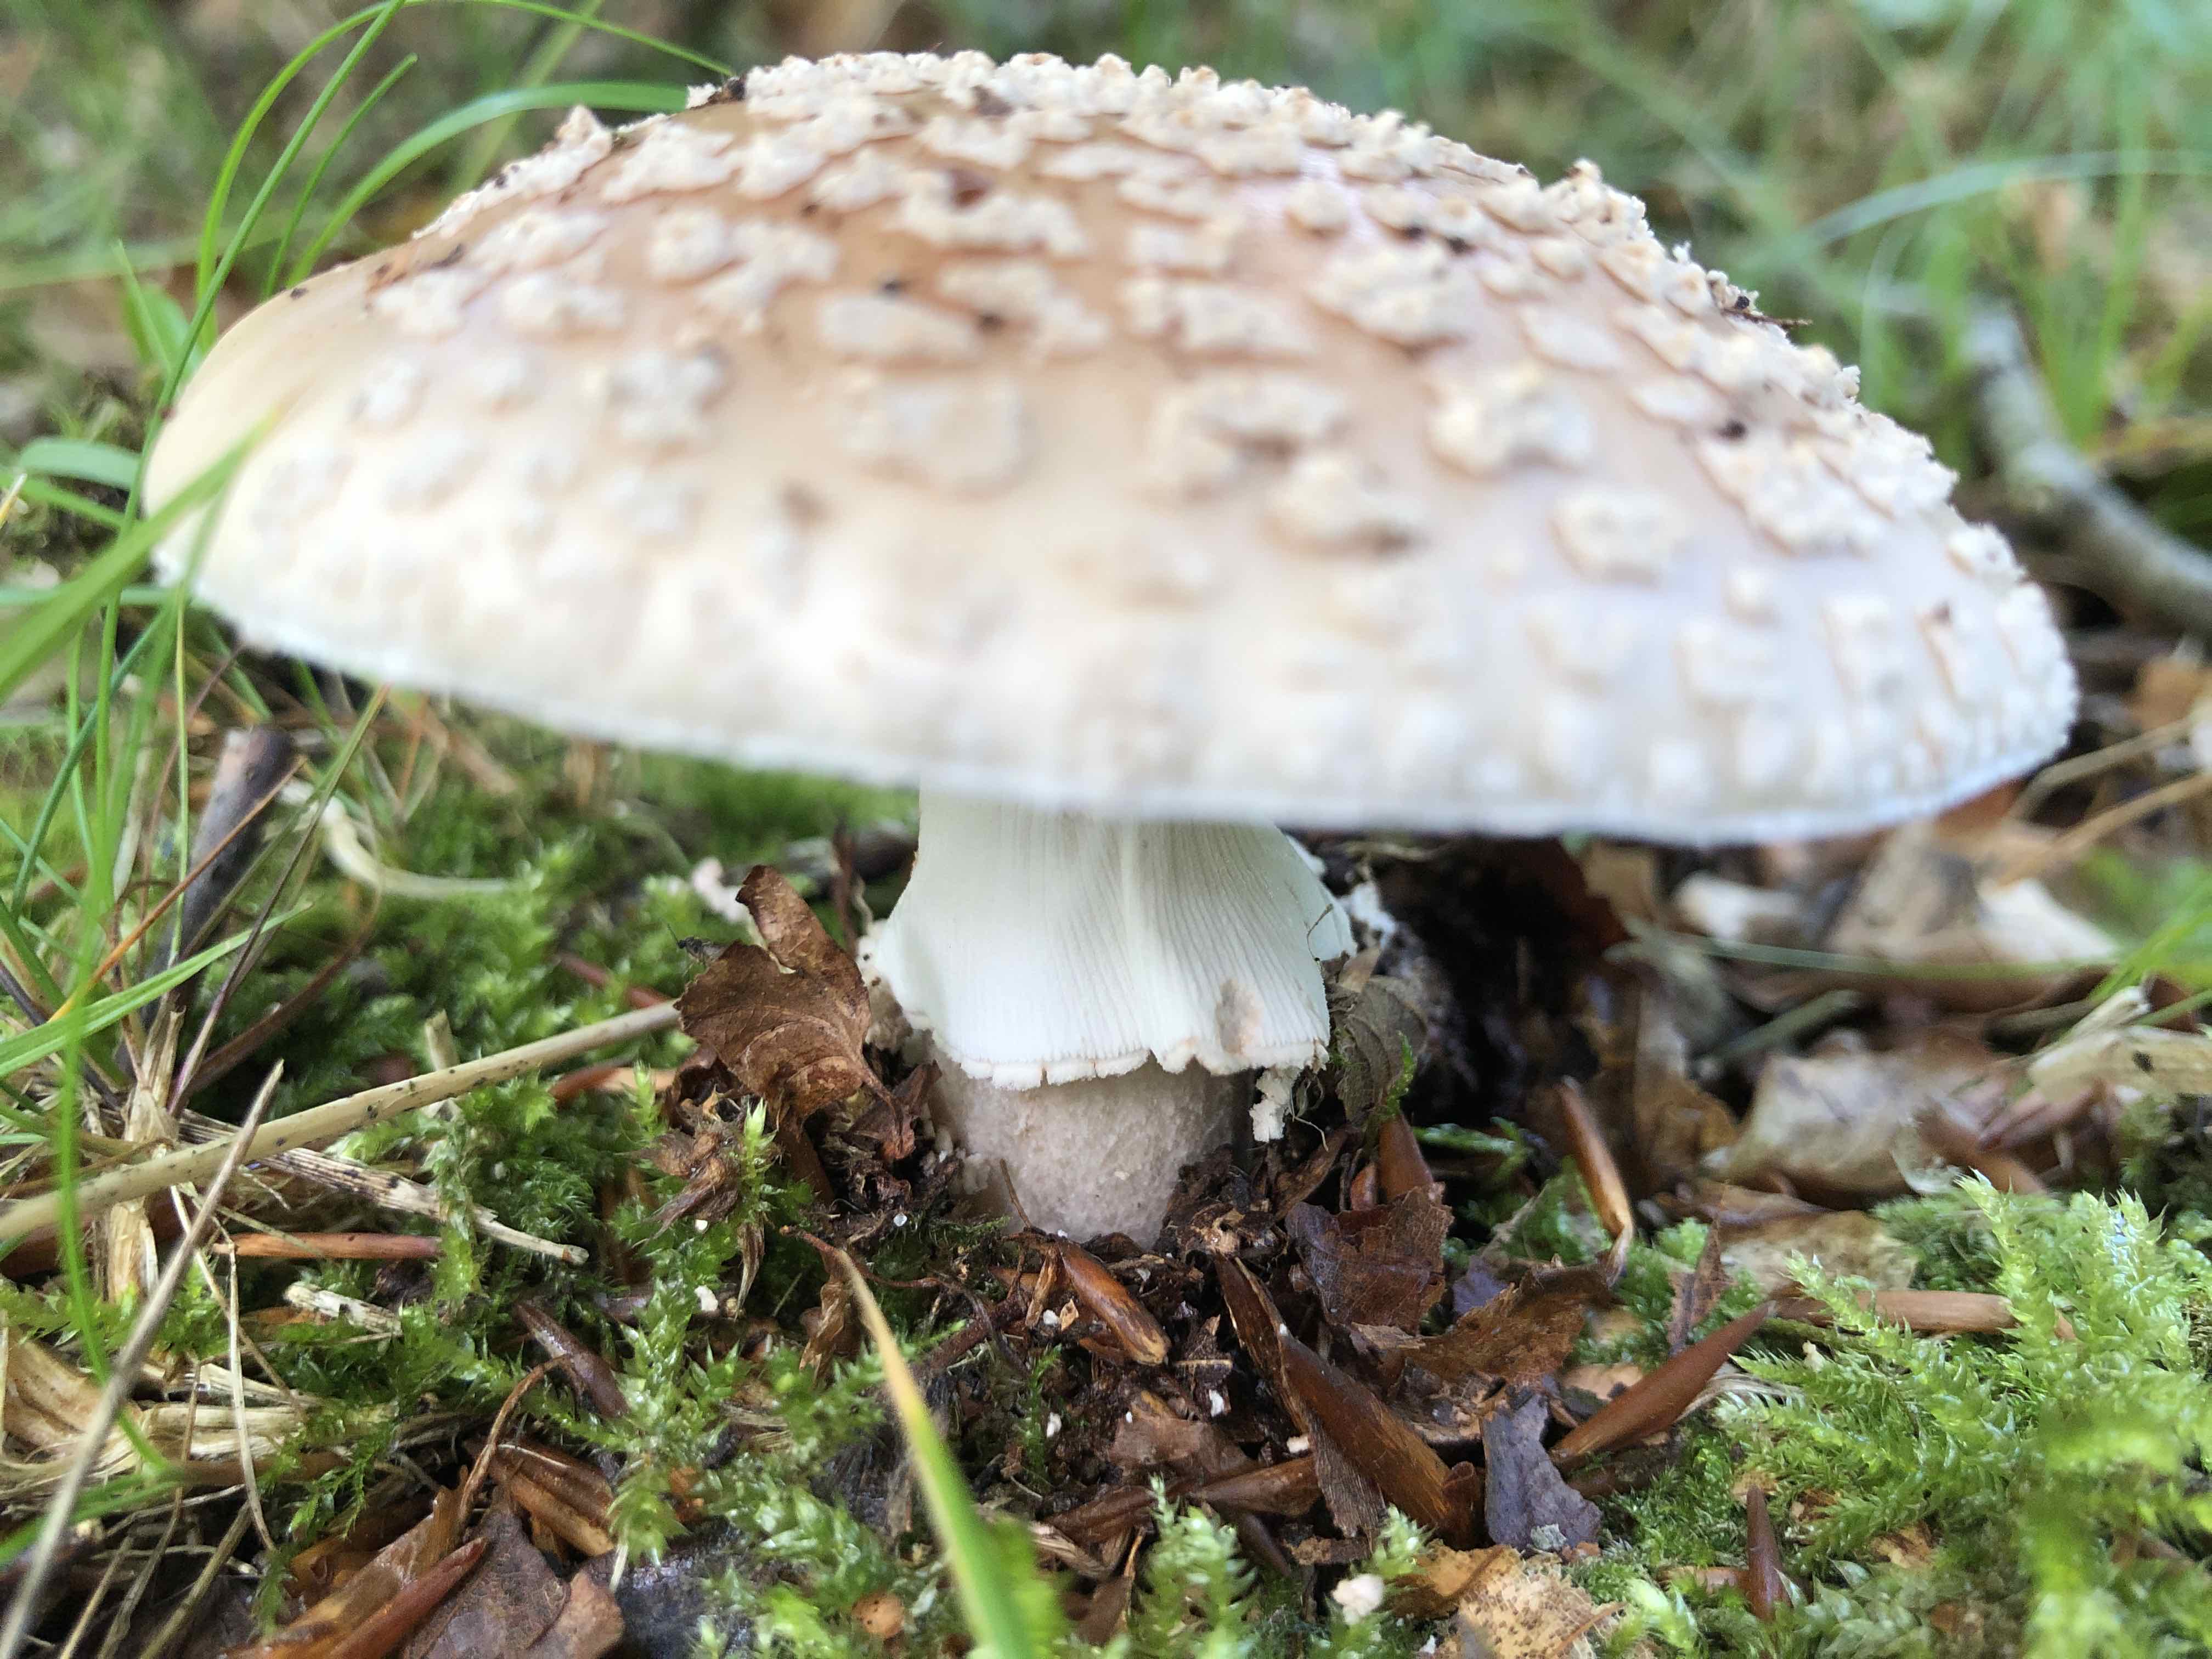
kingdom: Fungi
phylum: Basidiomycota
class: Agaricomycetes
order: Agaricales
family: Amanitaceae
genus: Amanita
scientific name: Amanita rubescens
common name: rødmende fluesvamp
